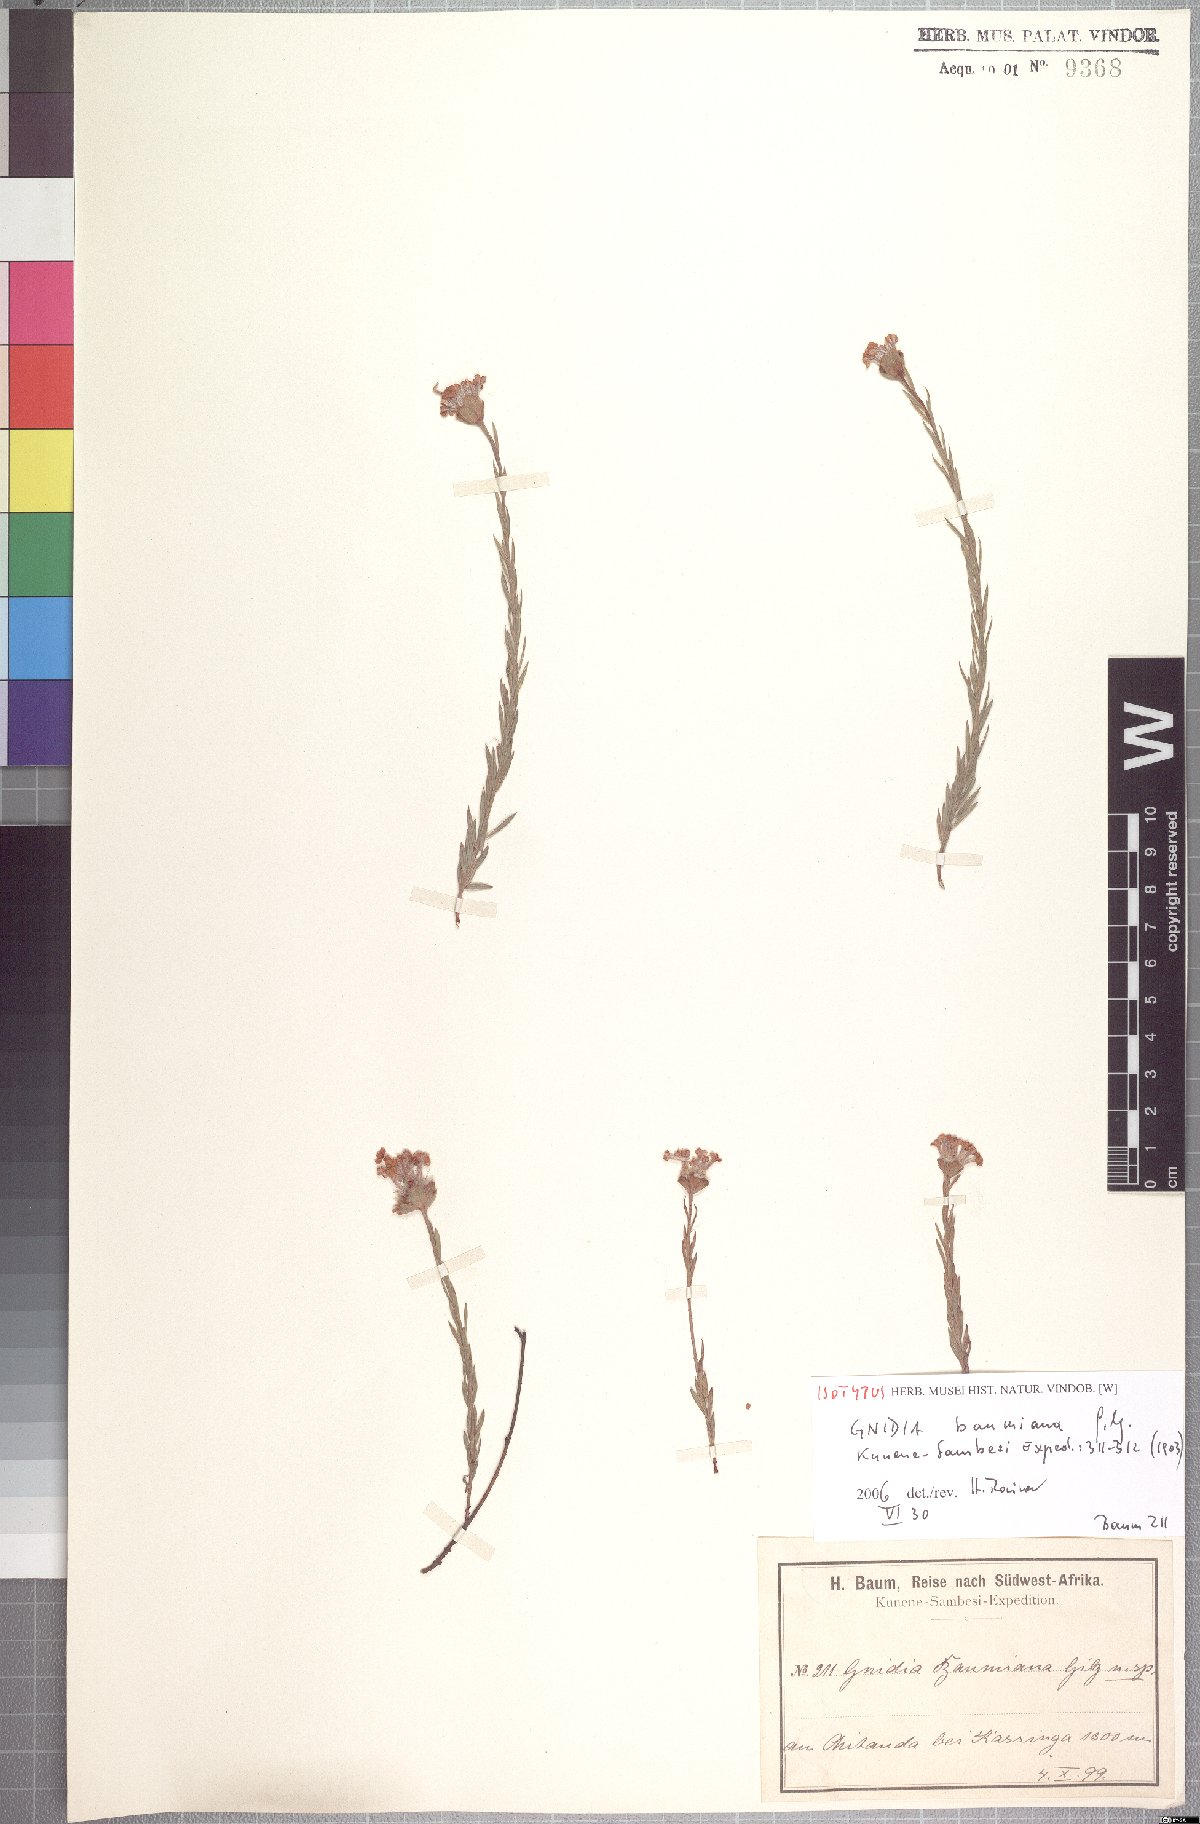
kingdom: Plantae
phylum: Tracheophyta
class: Magnoliopsida
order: Malvales
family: Thymelaeaceae
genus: Gnidia
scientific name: Gnidia baumiana
